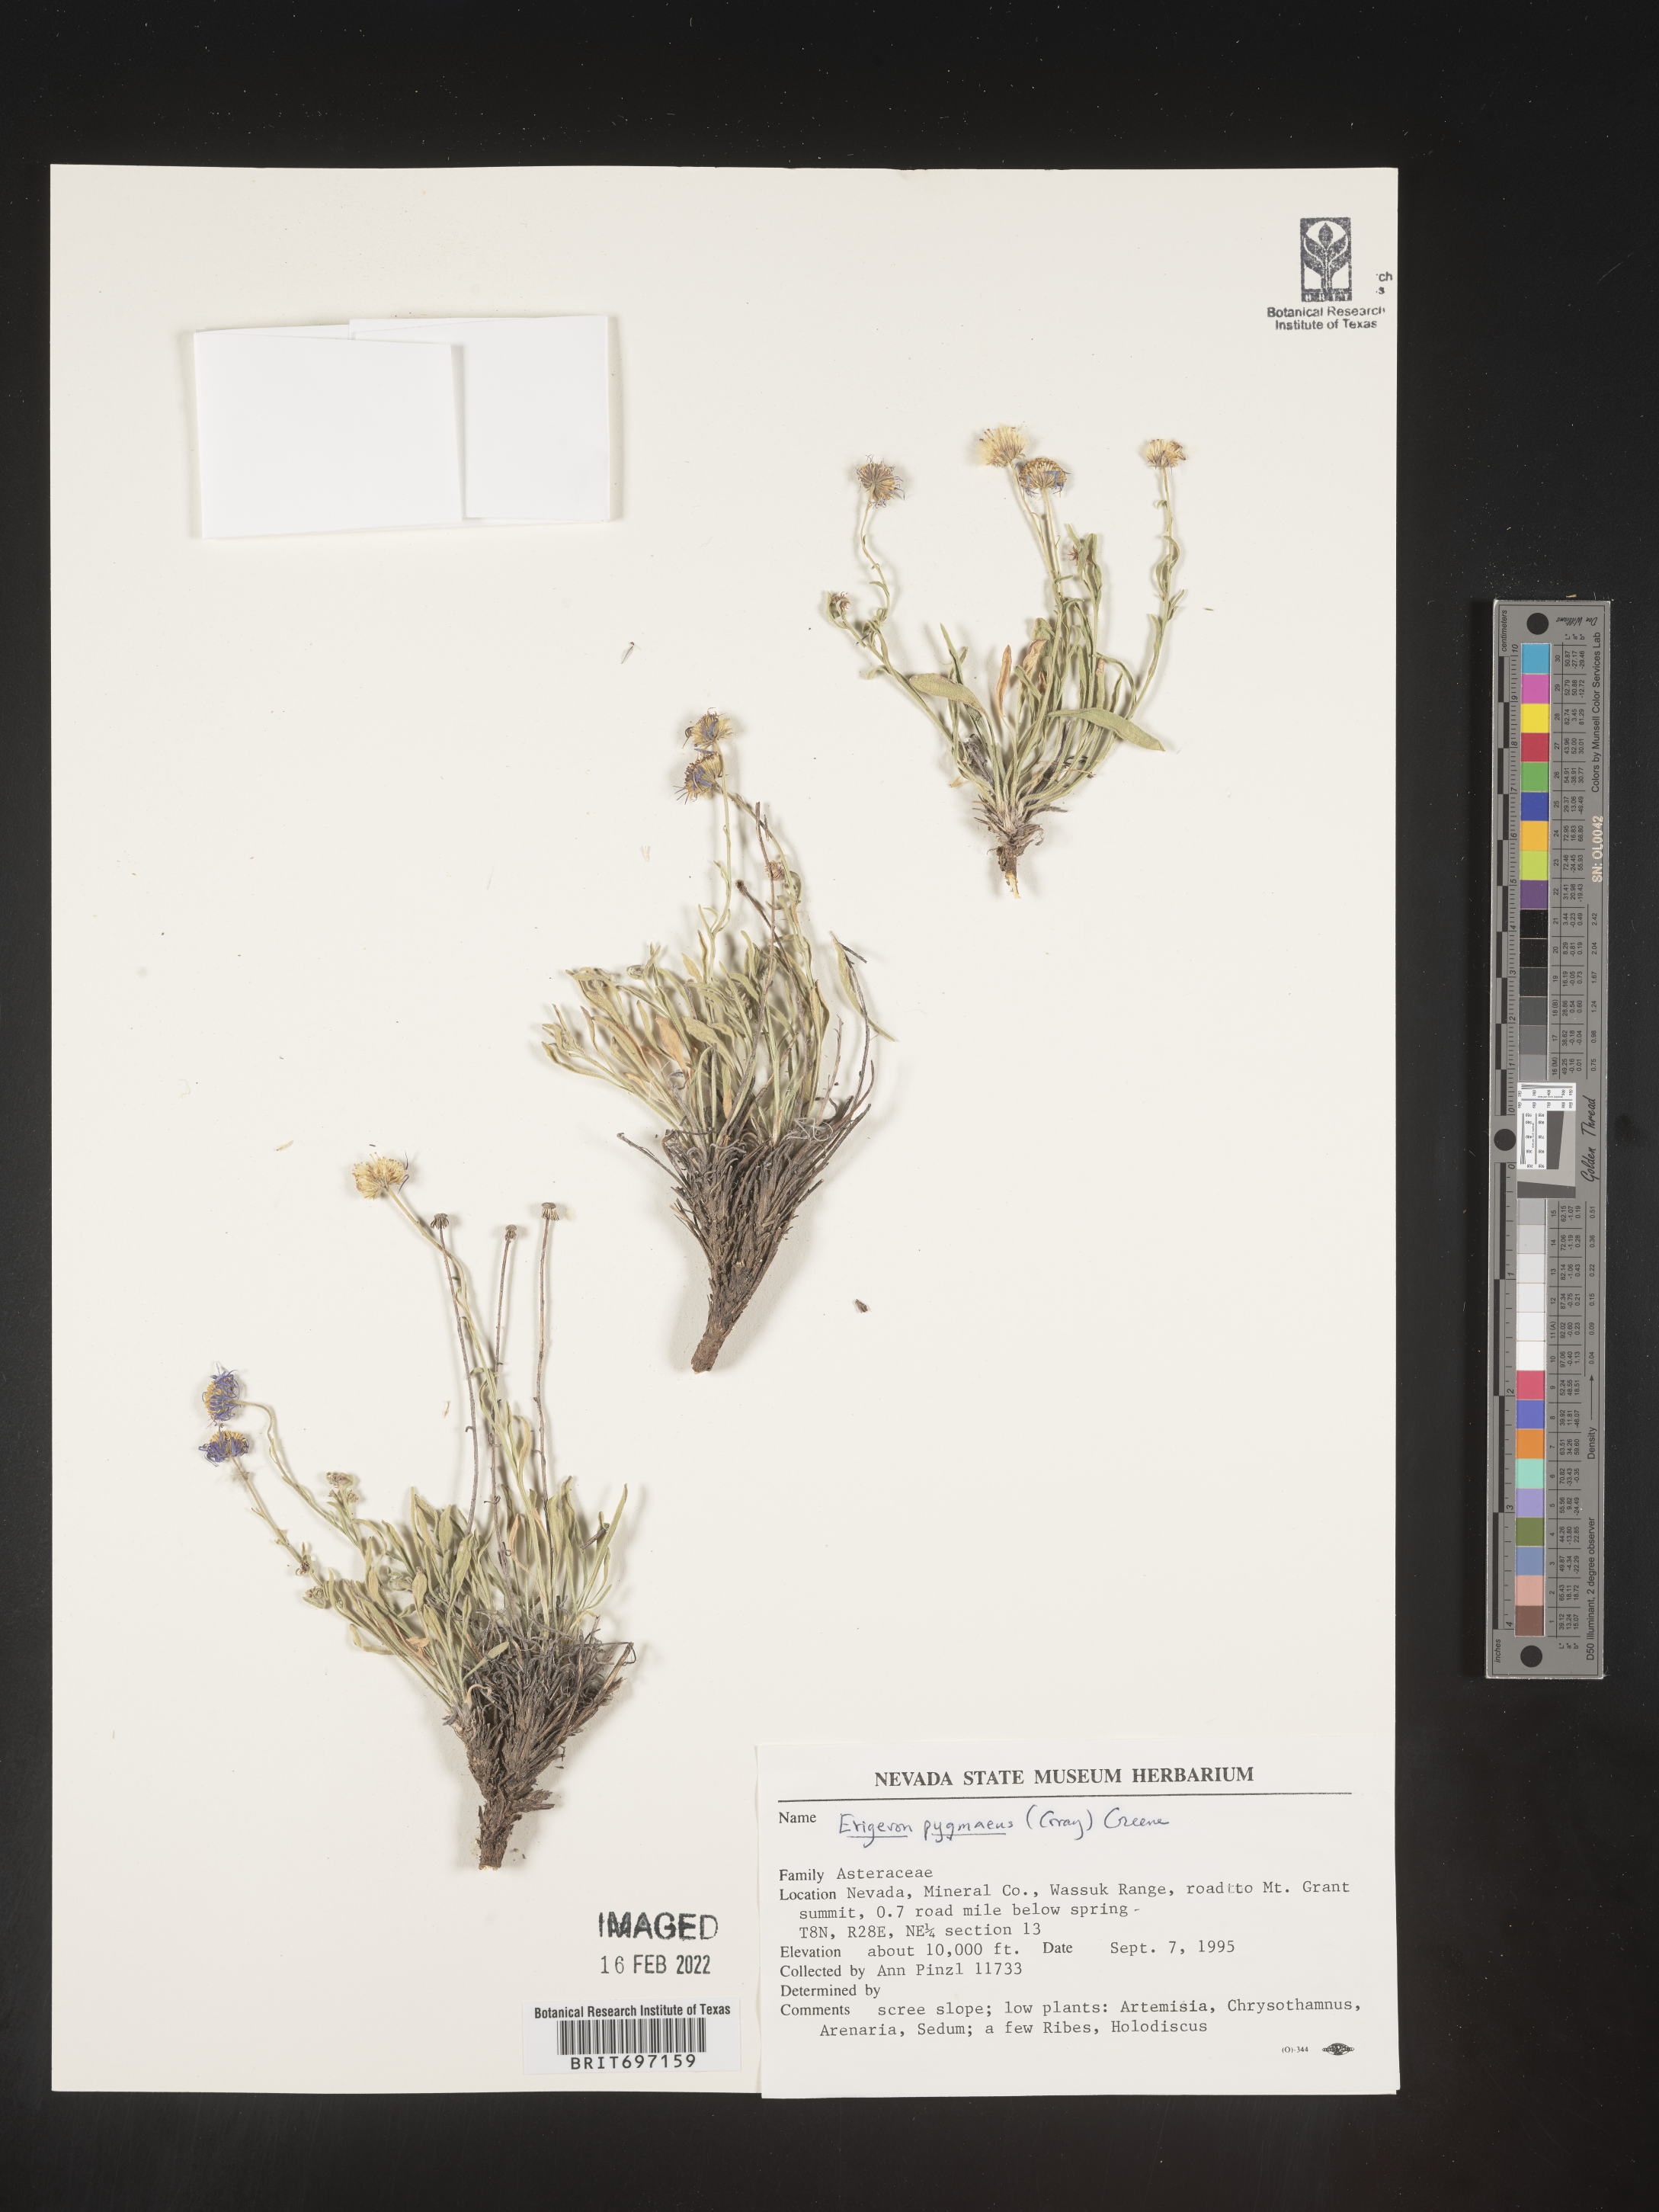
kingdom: Plantae
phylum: Tracheophyta
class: Magnoliopsida
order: Asterales
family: Asteraceae
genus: Erigeron
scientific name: Erigeron clokeyi
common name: Clokey's fleabane
